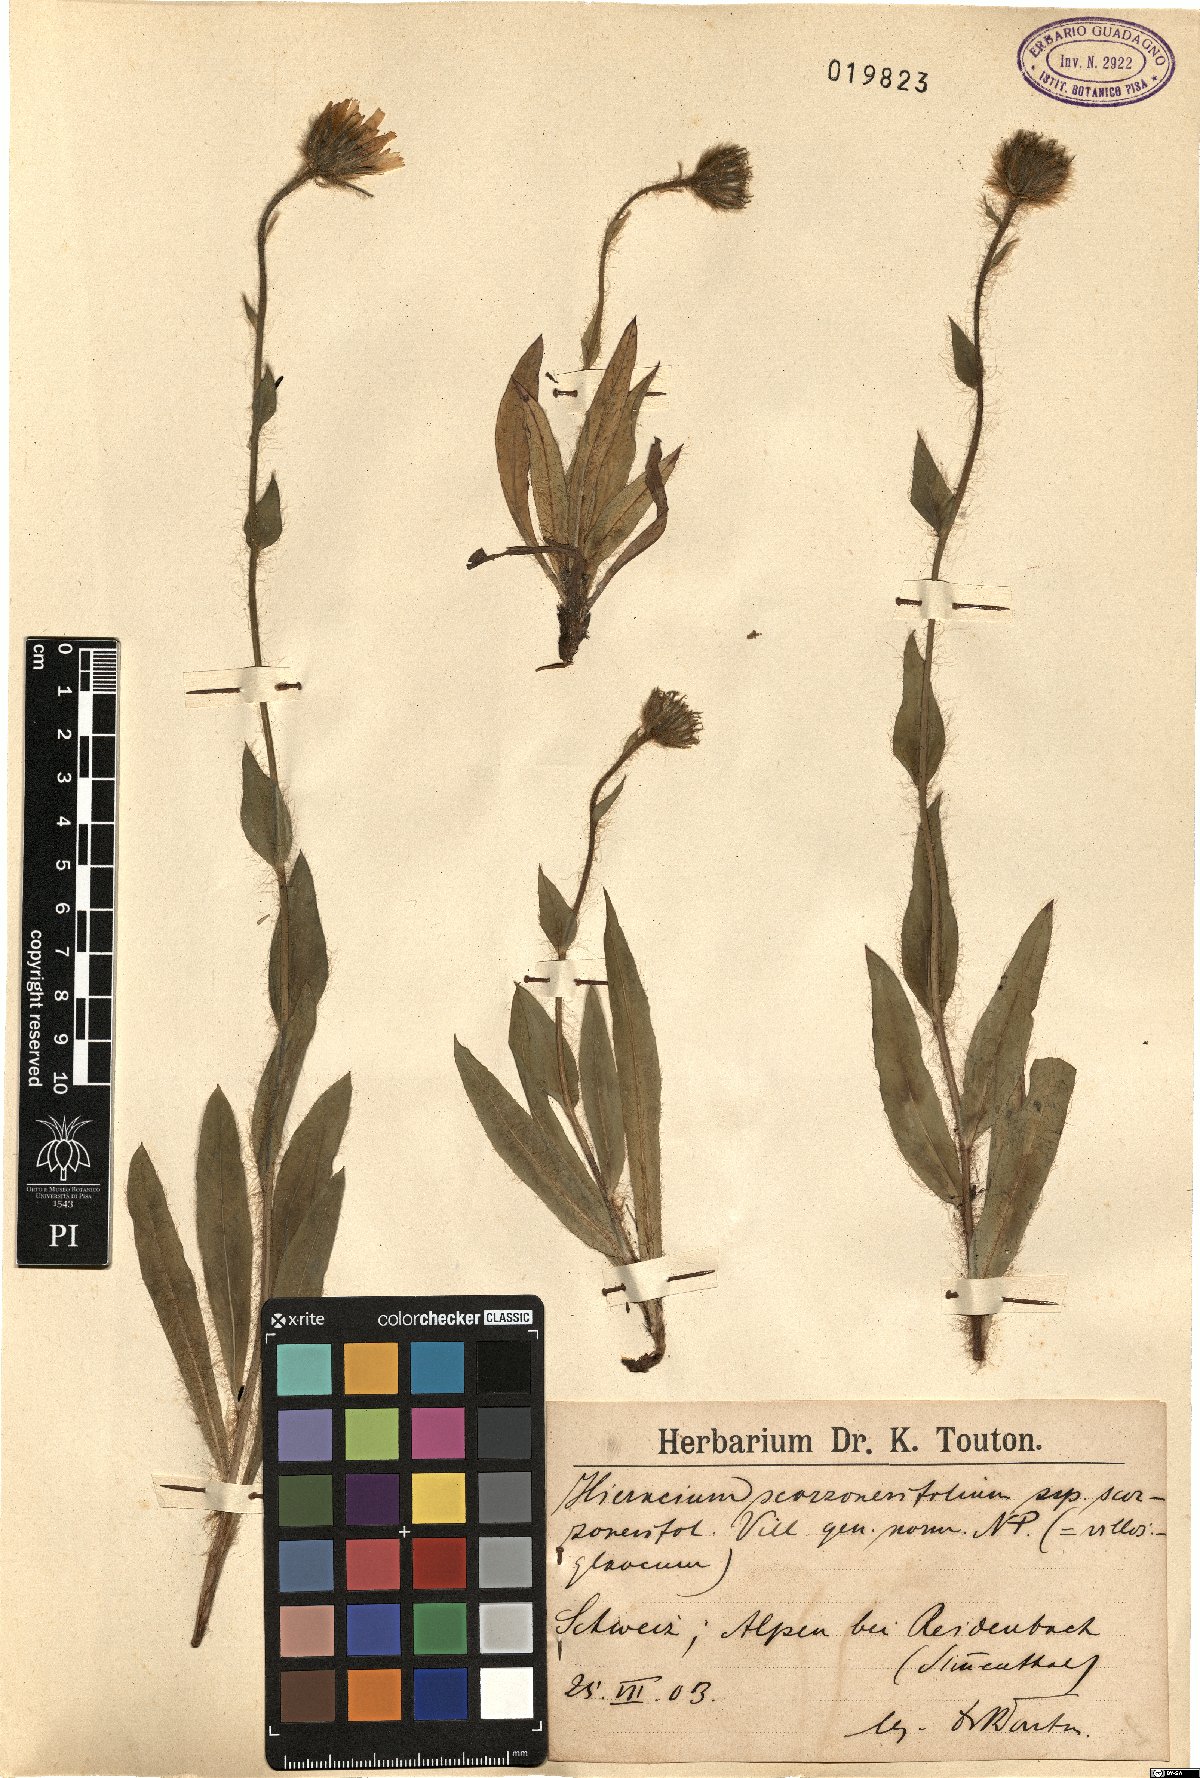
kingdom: Plantae
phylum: Tracheophyta
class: Magnoliopsida
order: Asterales
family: Asteraceae
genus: Hieracium
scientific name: Hieracium scorzonerifolium
